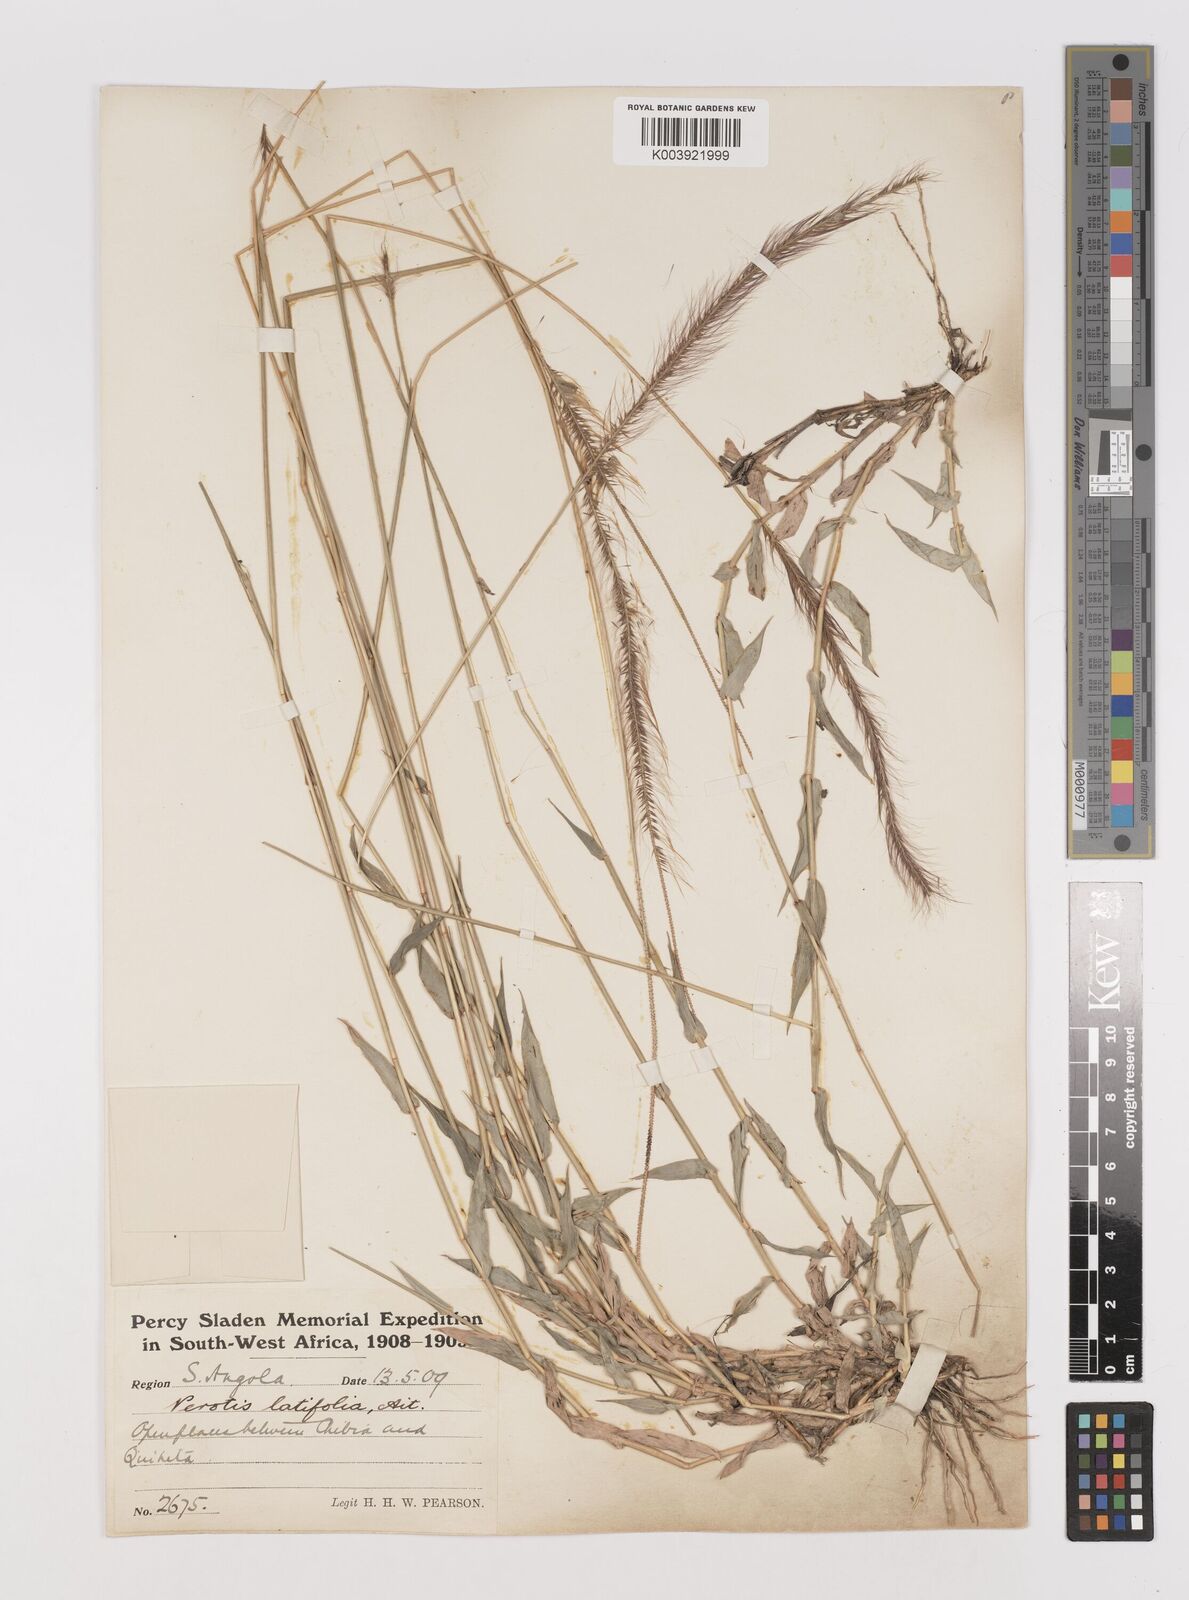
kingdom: Plantae
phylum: Tracheophyta
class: Liliopsida
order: Poales
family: Poaceae
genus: Perotis
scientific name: Perotis patens
